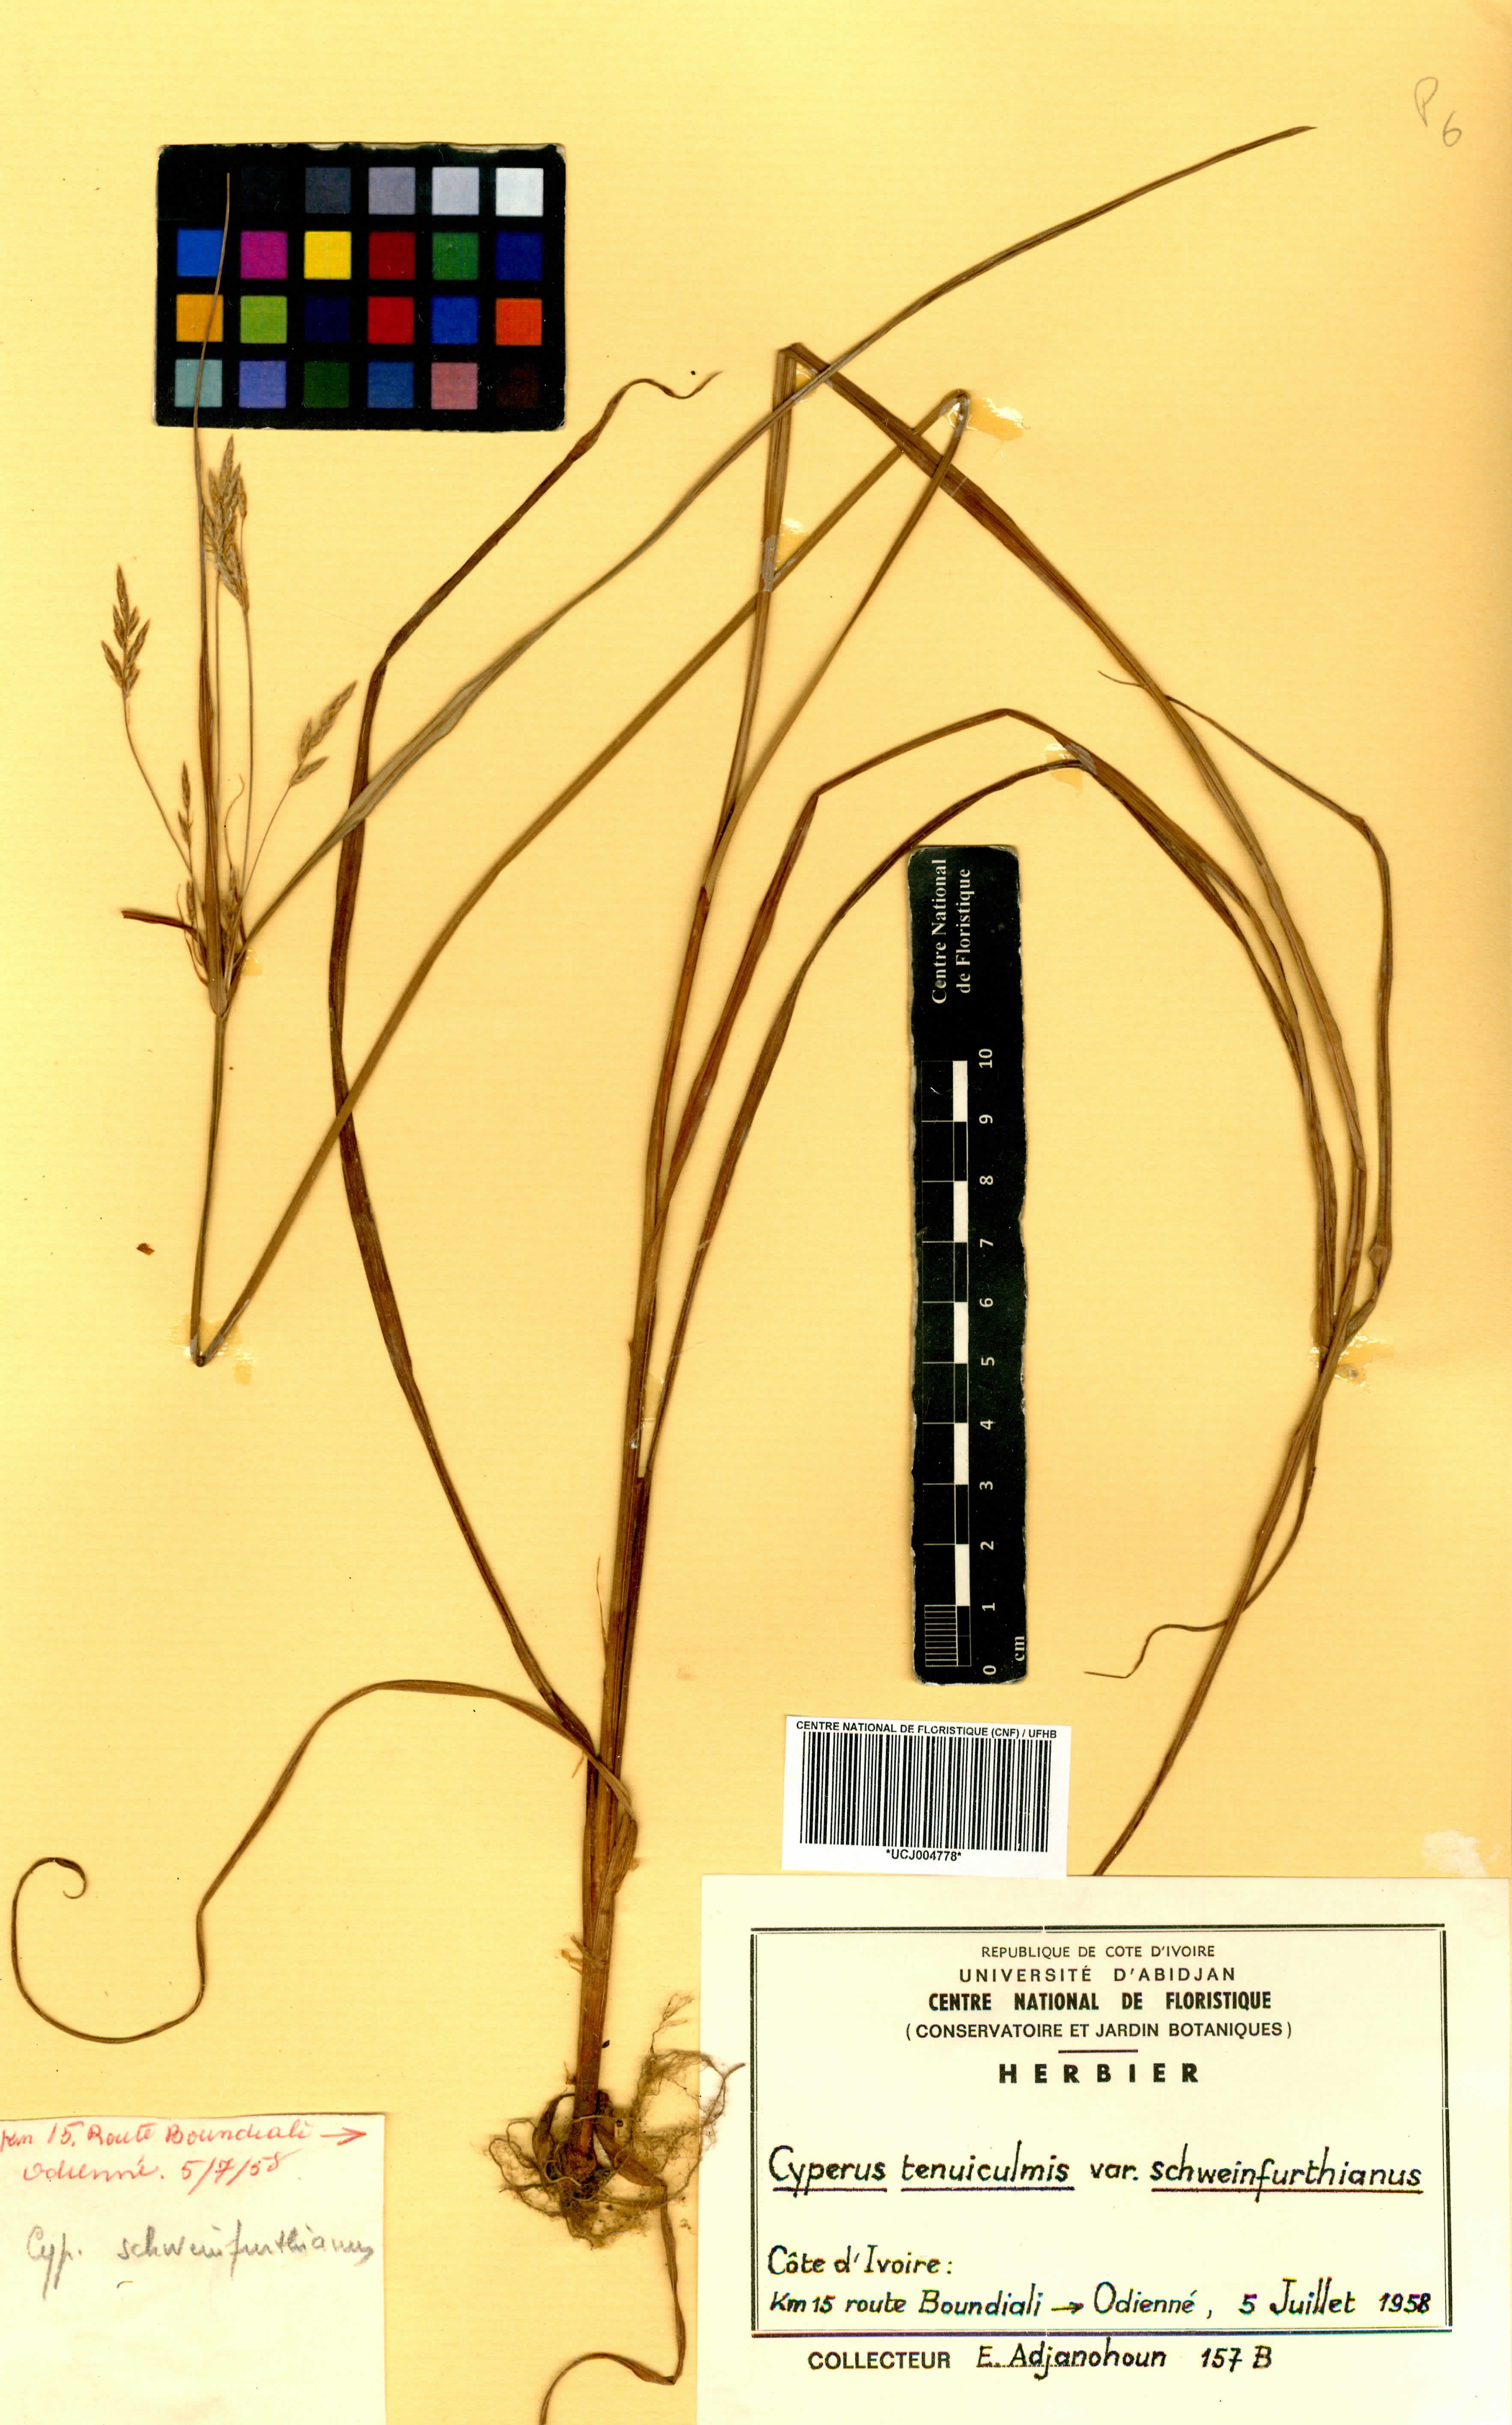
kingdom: Plantae
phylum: Tracheophyta
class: Liliopsida
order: Poales
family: Cyperaceae
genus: Cyperus
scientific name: Cyperus tenuiculmis
